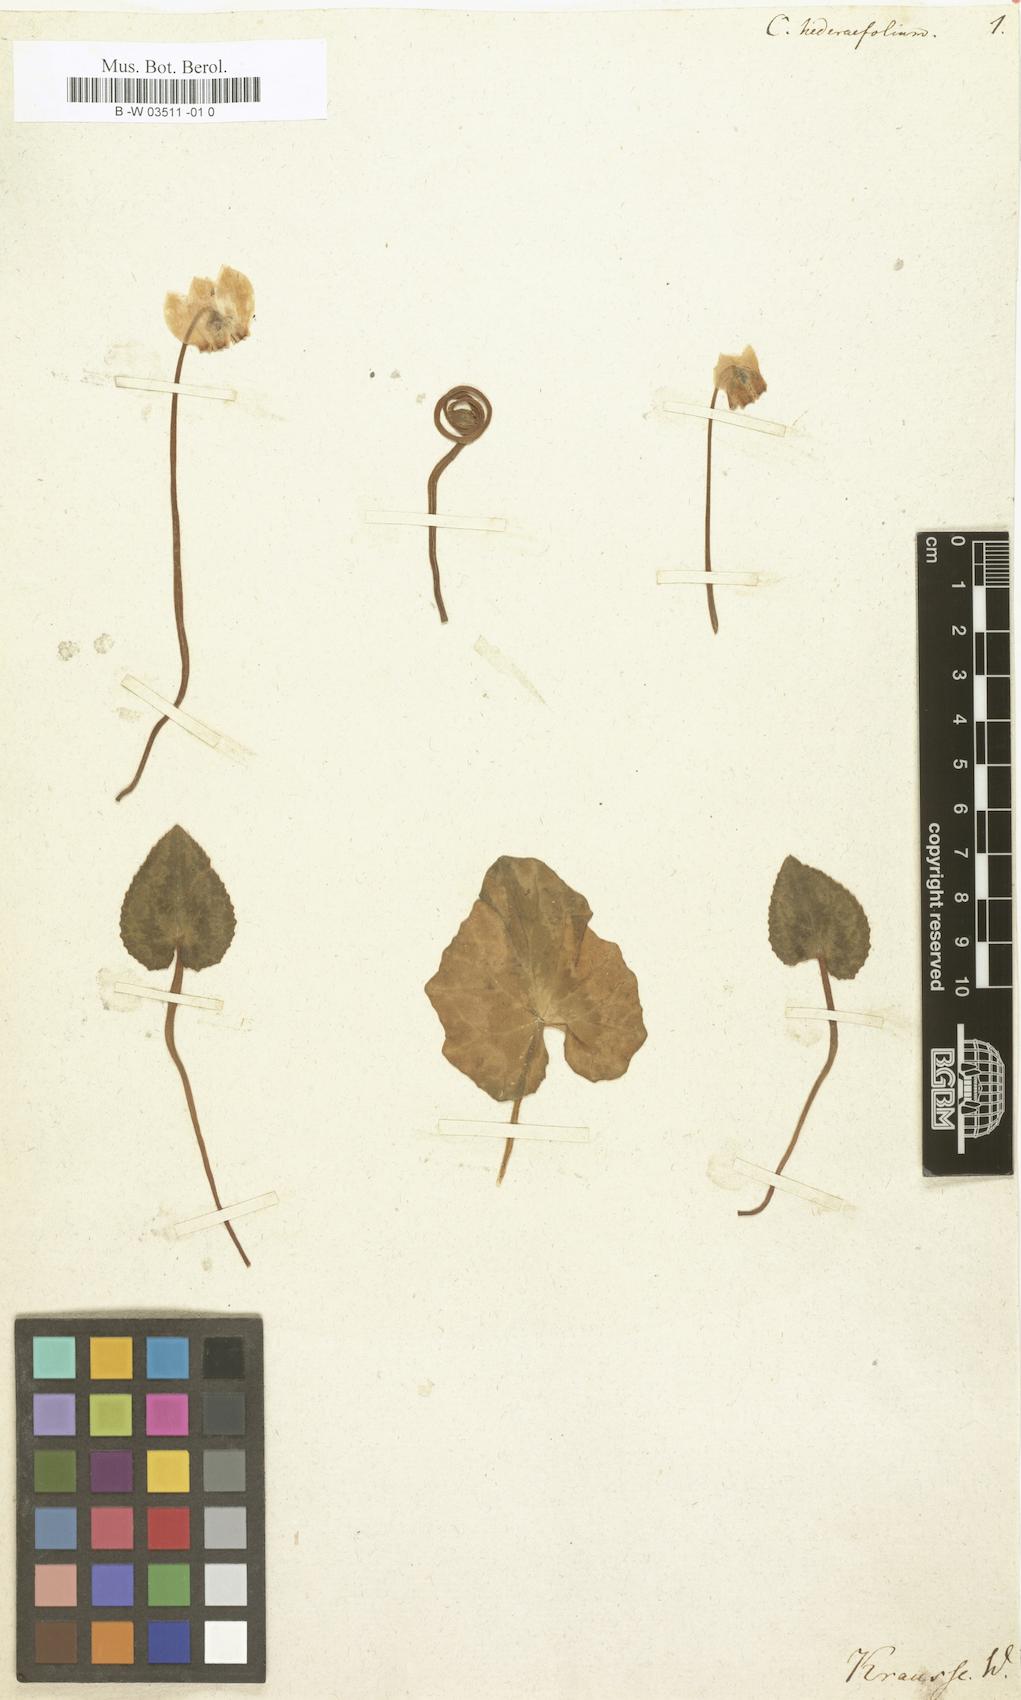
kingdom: Plantae
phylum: Tracheophyta
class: Magnoliopsida
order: Ericales
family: Primulaceae
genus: Cyclamen
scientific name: Cyclamen hederifolium
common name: Sowbread
